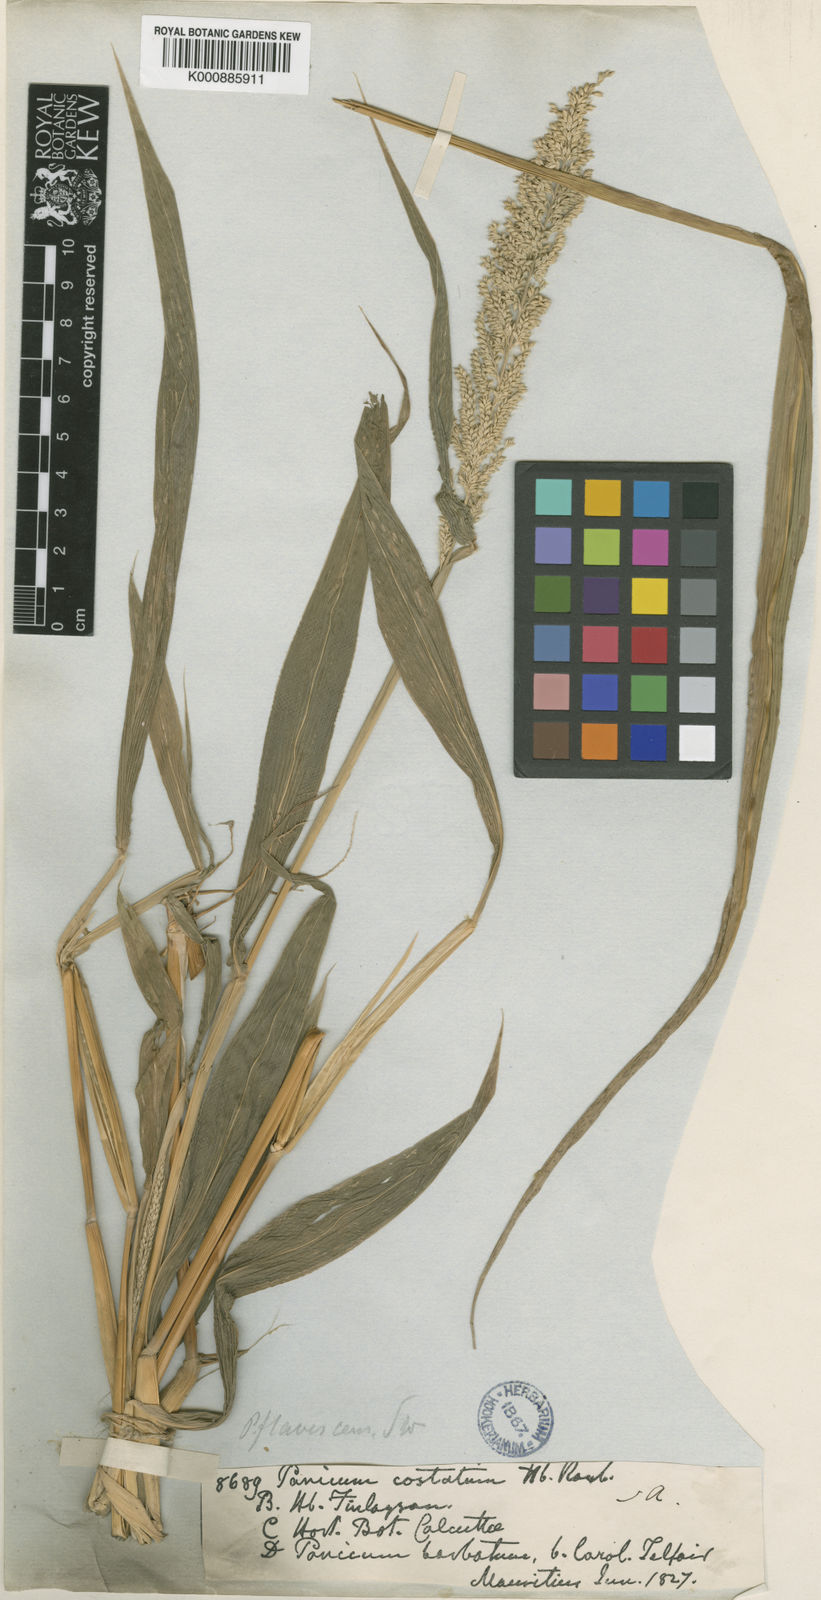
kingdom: Plantae
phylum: Tracheophyta
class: Liliopsida
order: Poales
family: Poaceae
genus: Setaria
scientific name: Setaria barbata
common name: East indian bristlegrass
